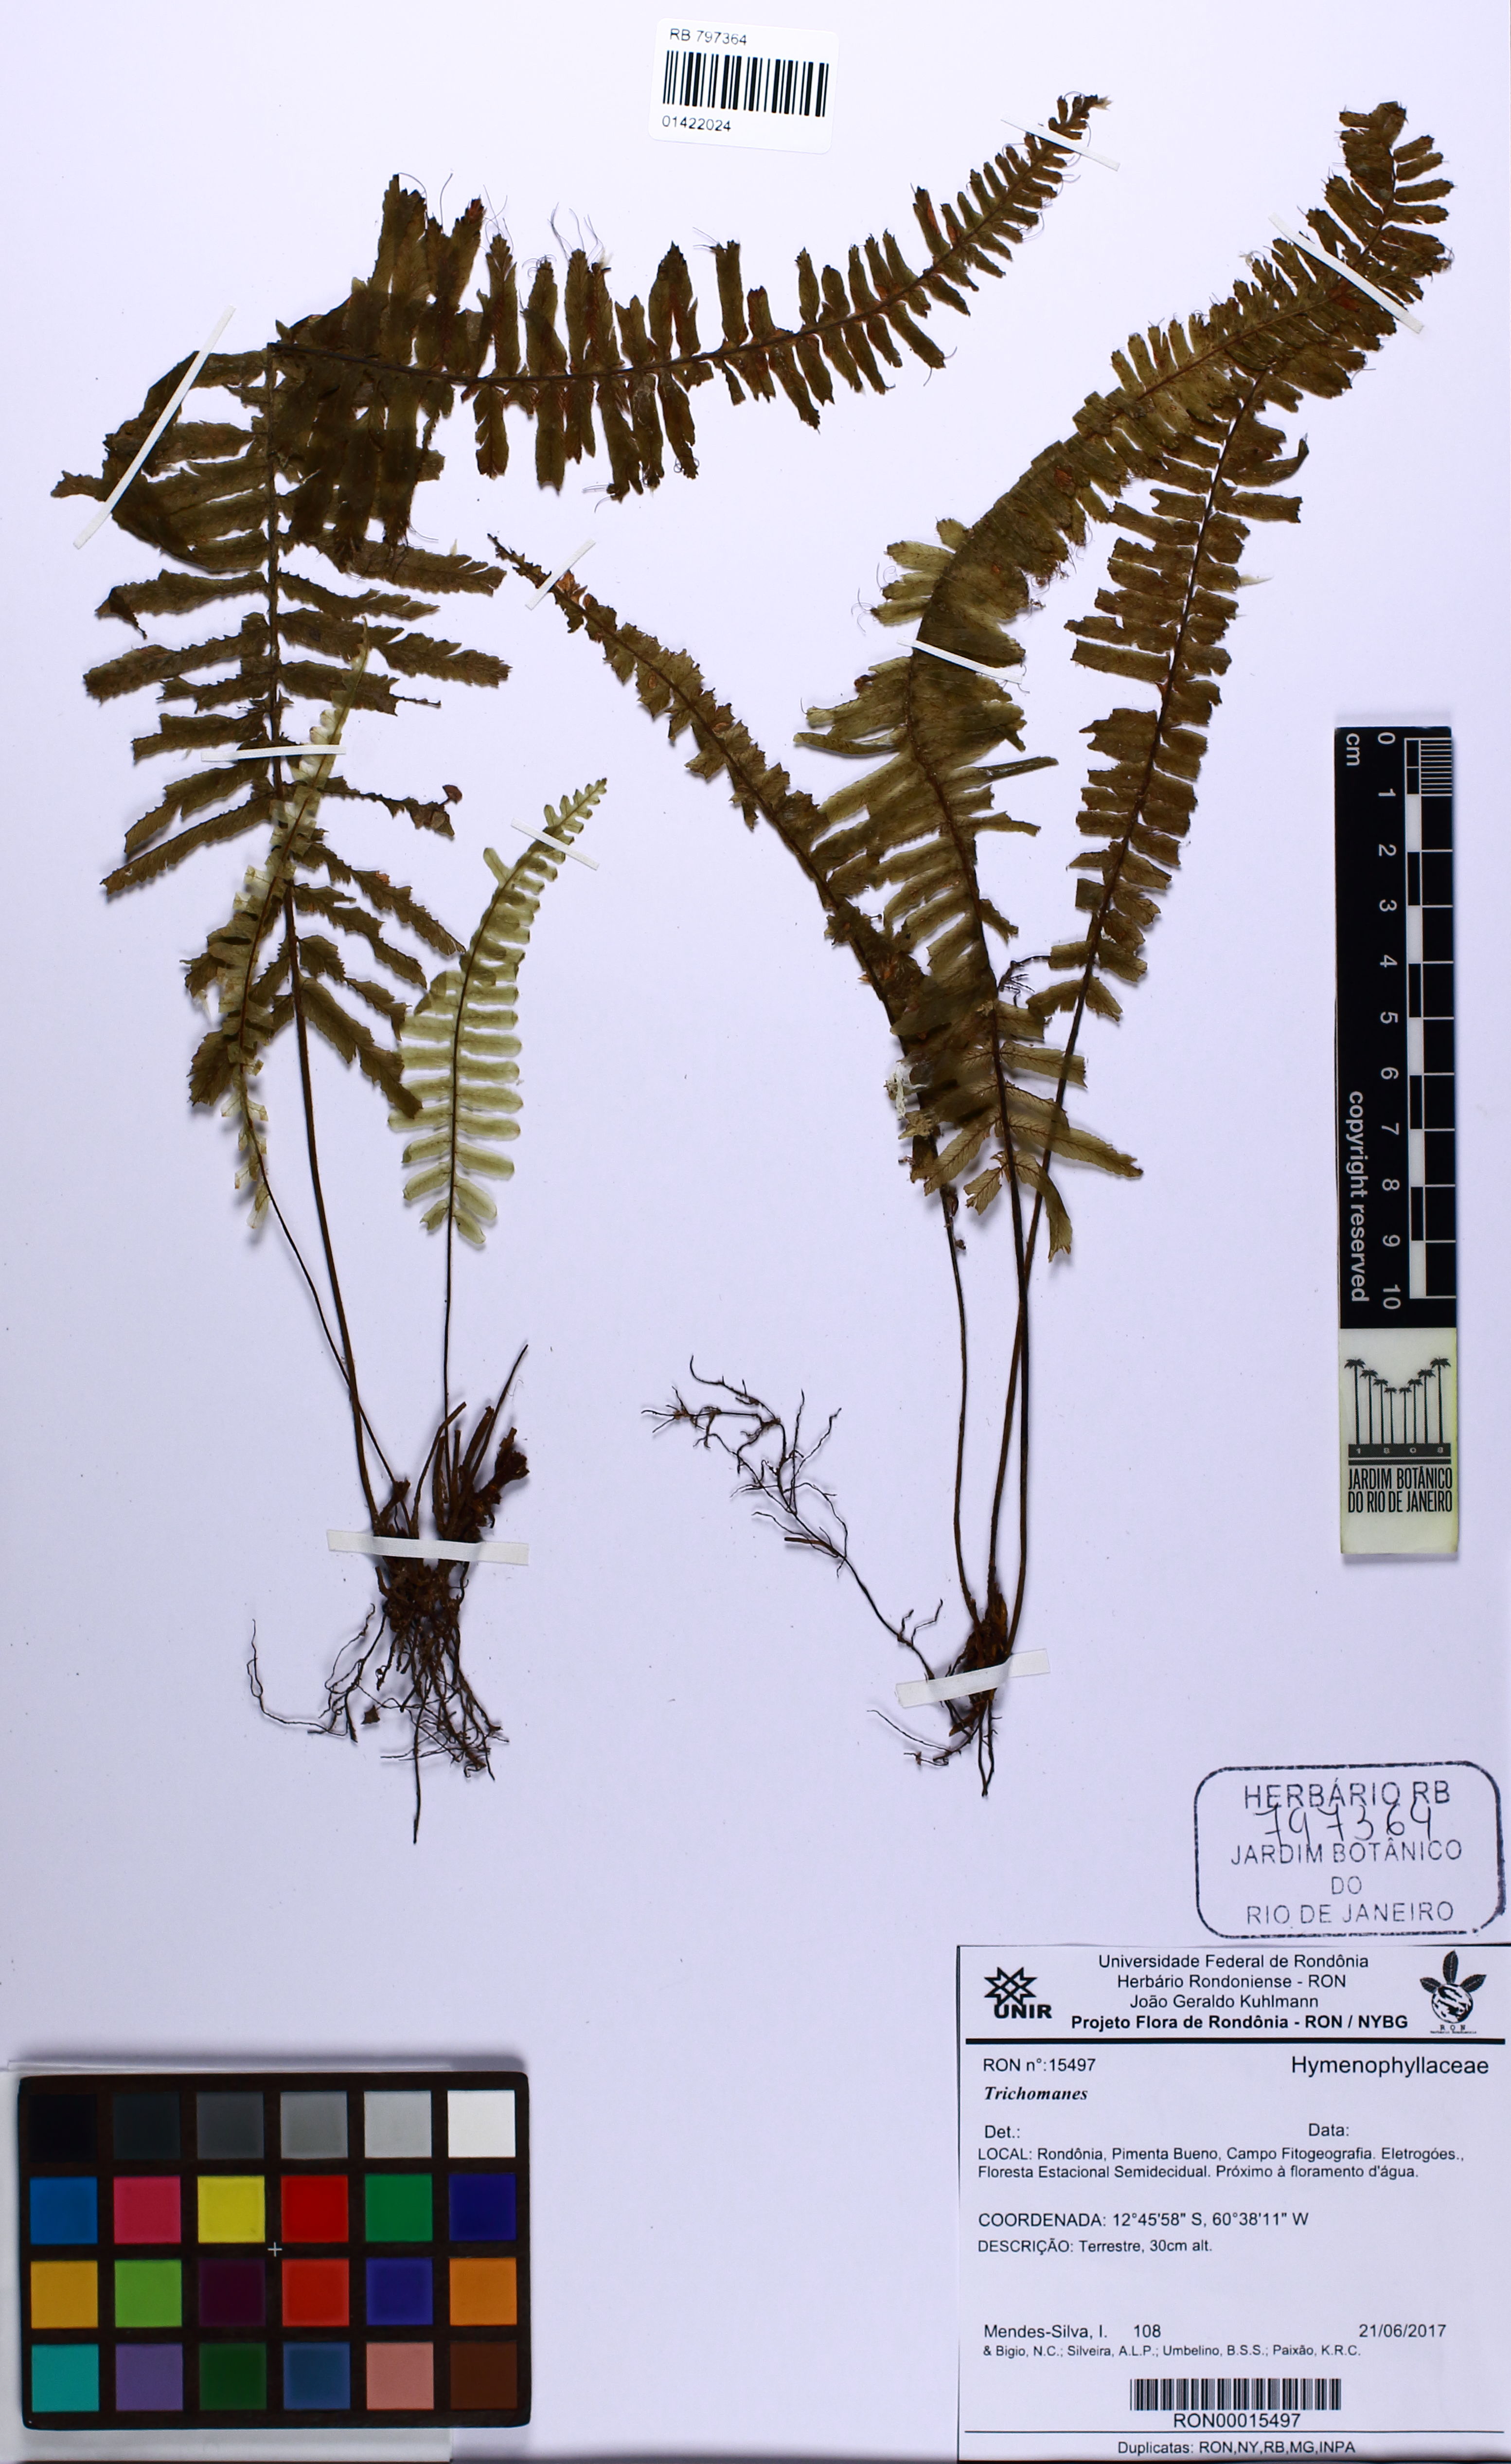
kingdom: Plantae
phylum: Tracheophyta
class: Polypodiopsida
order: Hymenophyllales
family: Hymenophyllaceae
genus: Trichomanes
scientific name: Trichomanes
